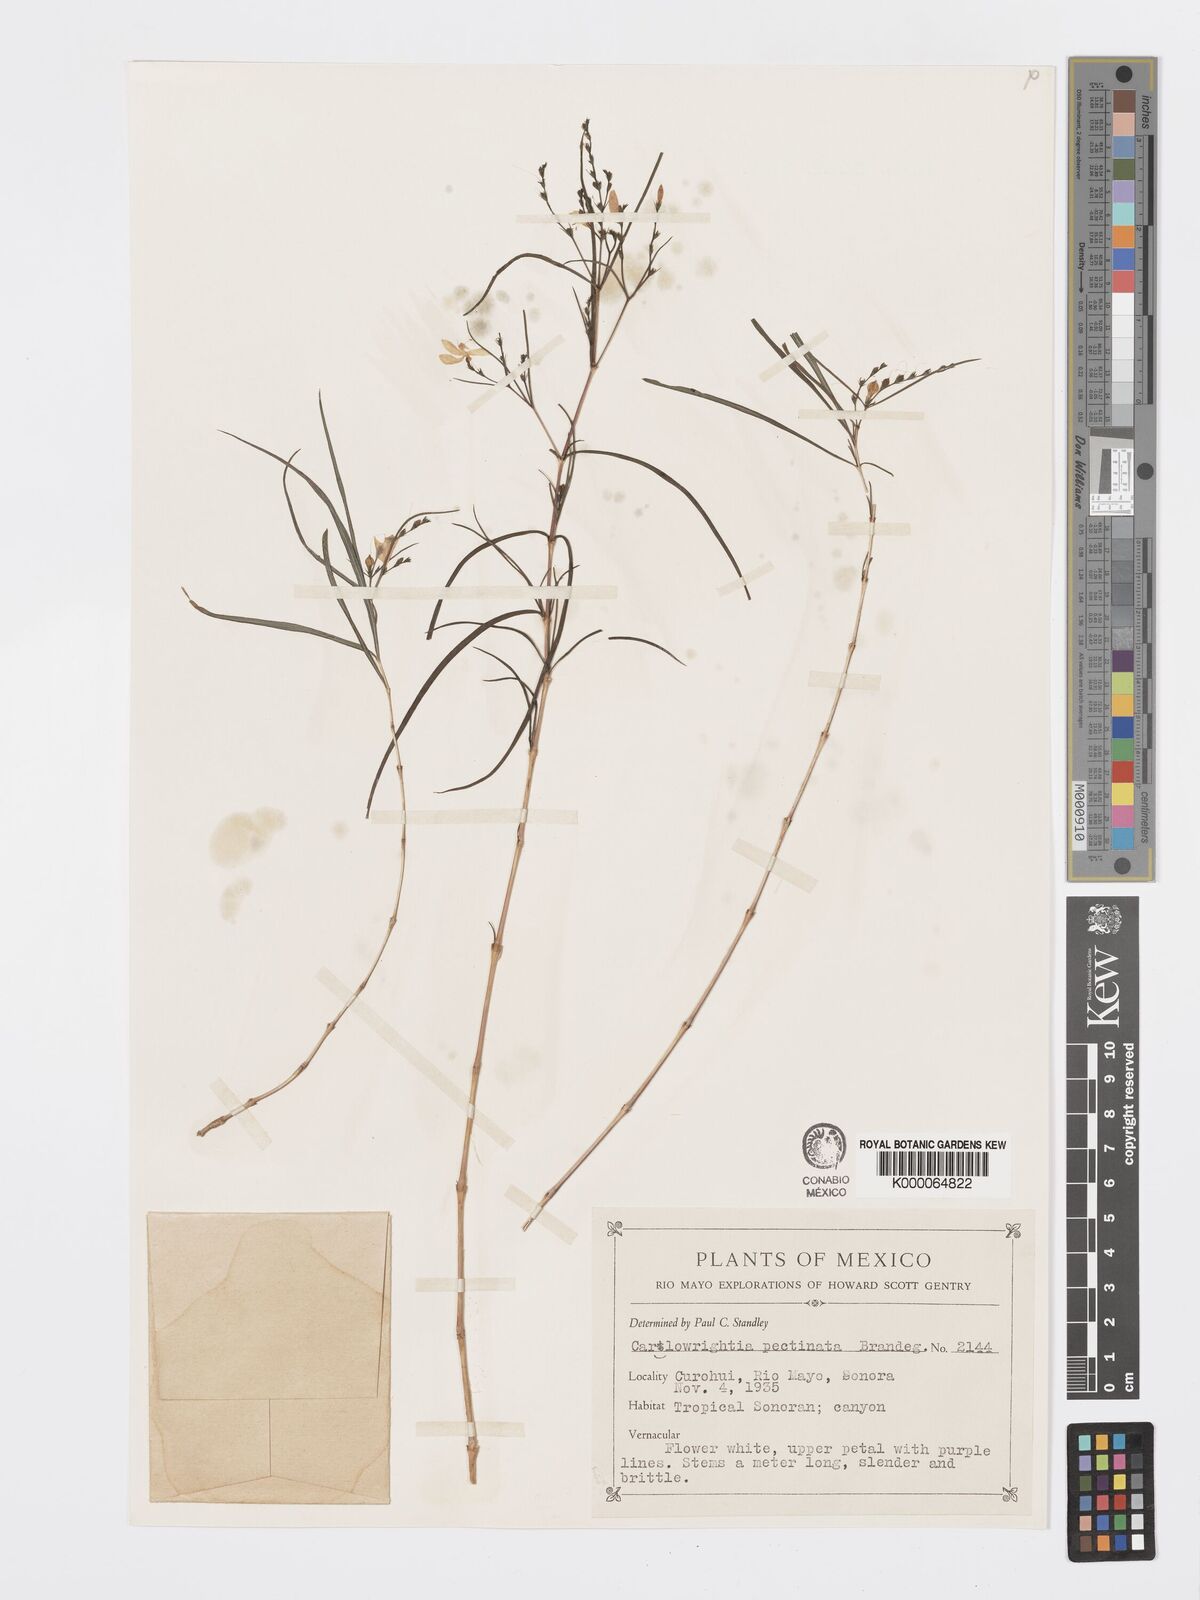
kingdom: Plantae
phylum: Tracheophyta
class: Magnoliopsida
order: Lamiales
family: Acanthaceae
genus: Carlowrightia
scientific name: Carlowrightia pectinata
